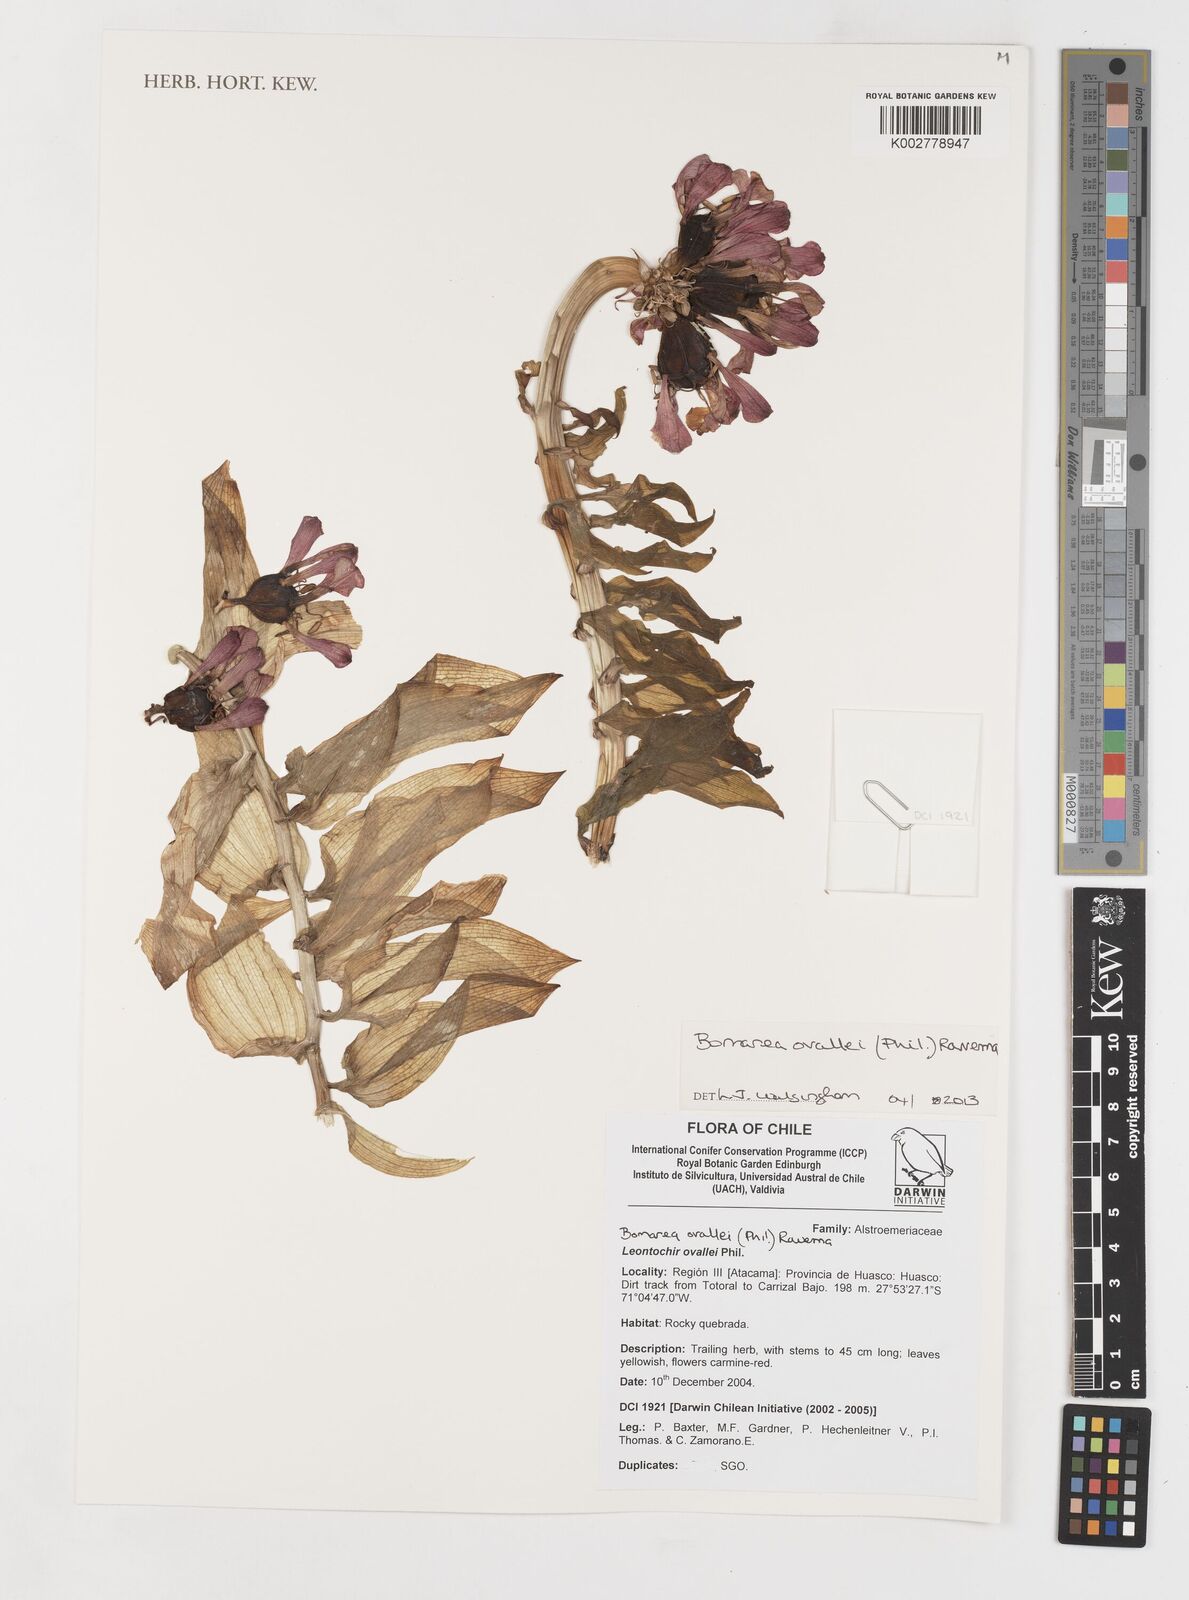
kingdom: Plantae
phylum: Tracheophyta
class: Liliopsida
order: Liliales
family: Alstroemeriaceae
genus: Bomarea
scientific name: Bomarea ovallei
